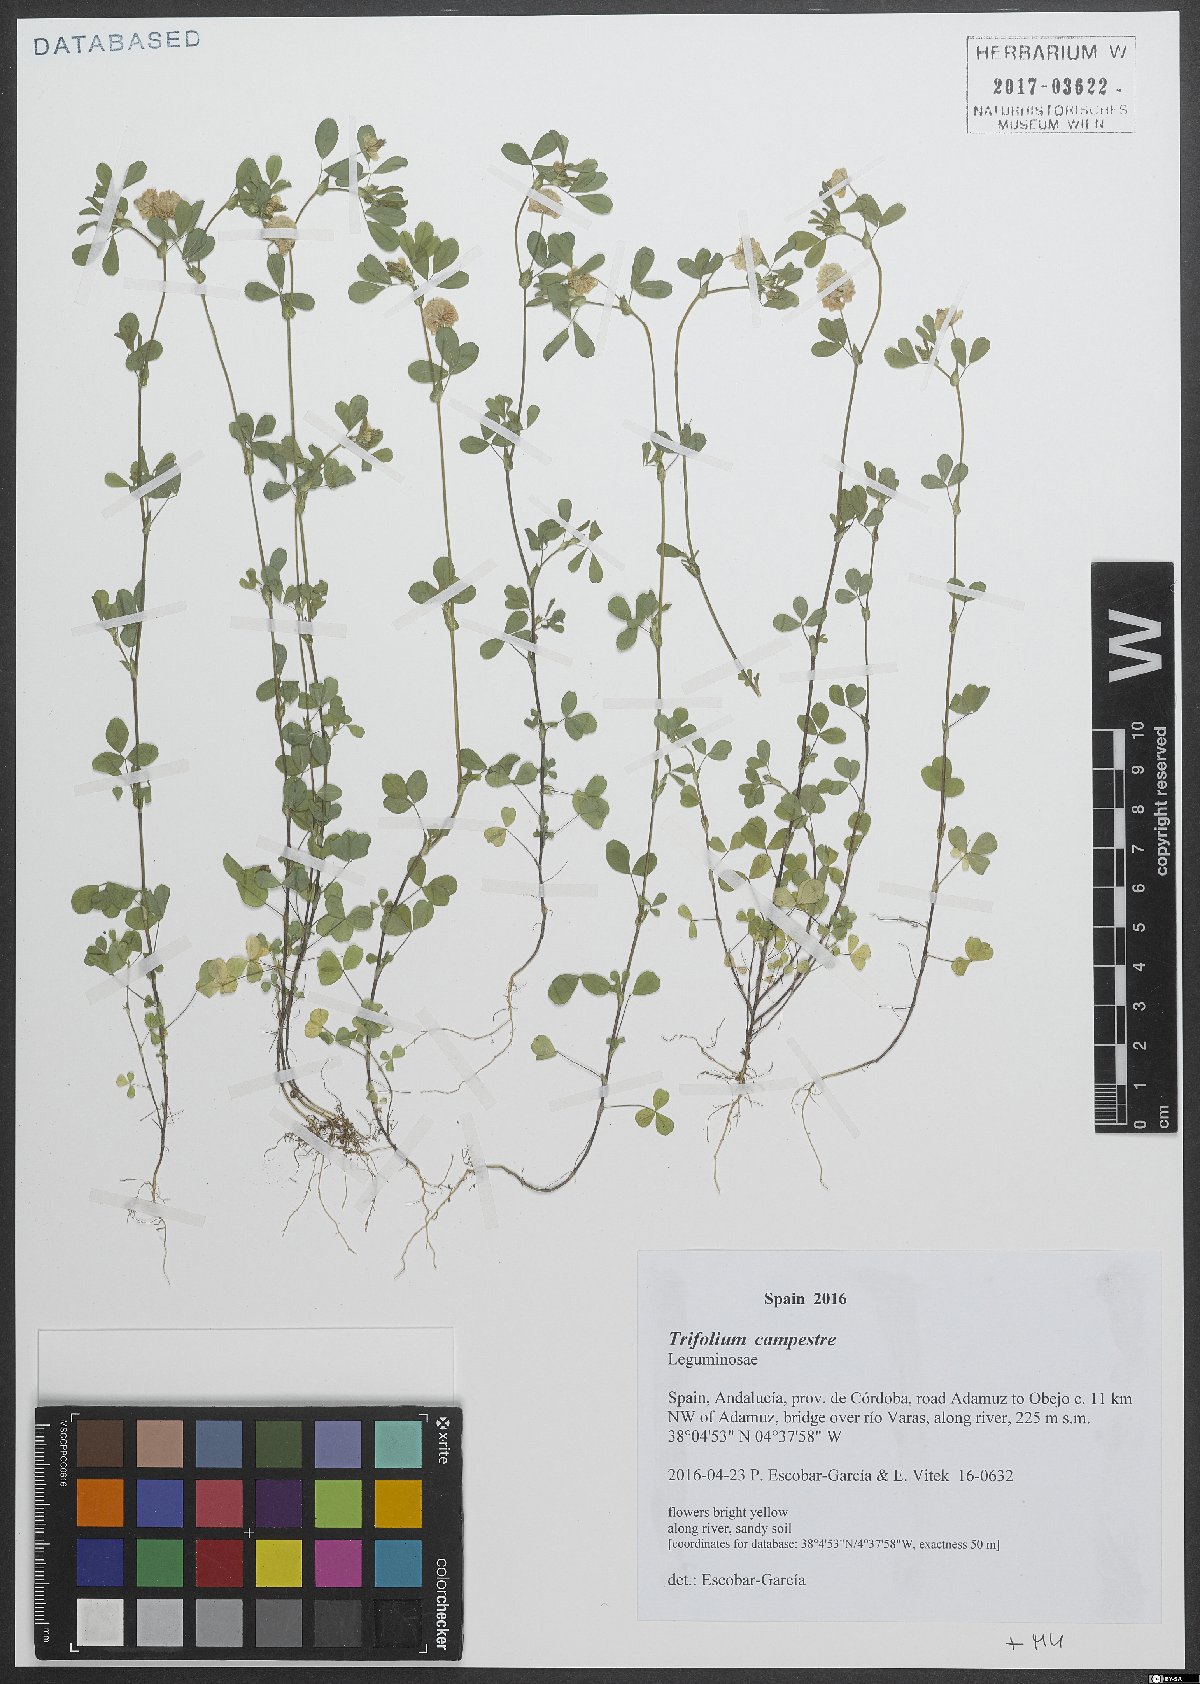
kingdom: Plantae
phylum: Tracheophyta
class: Magnoliopsida
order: Fabales
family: Fabaceae
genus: Trifolium
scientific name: Trifolium campestre
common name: Field clover
